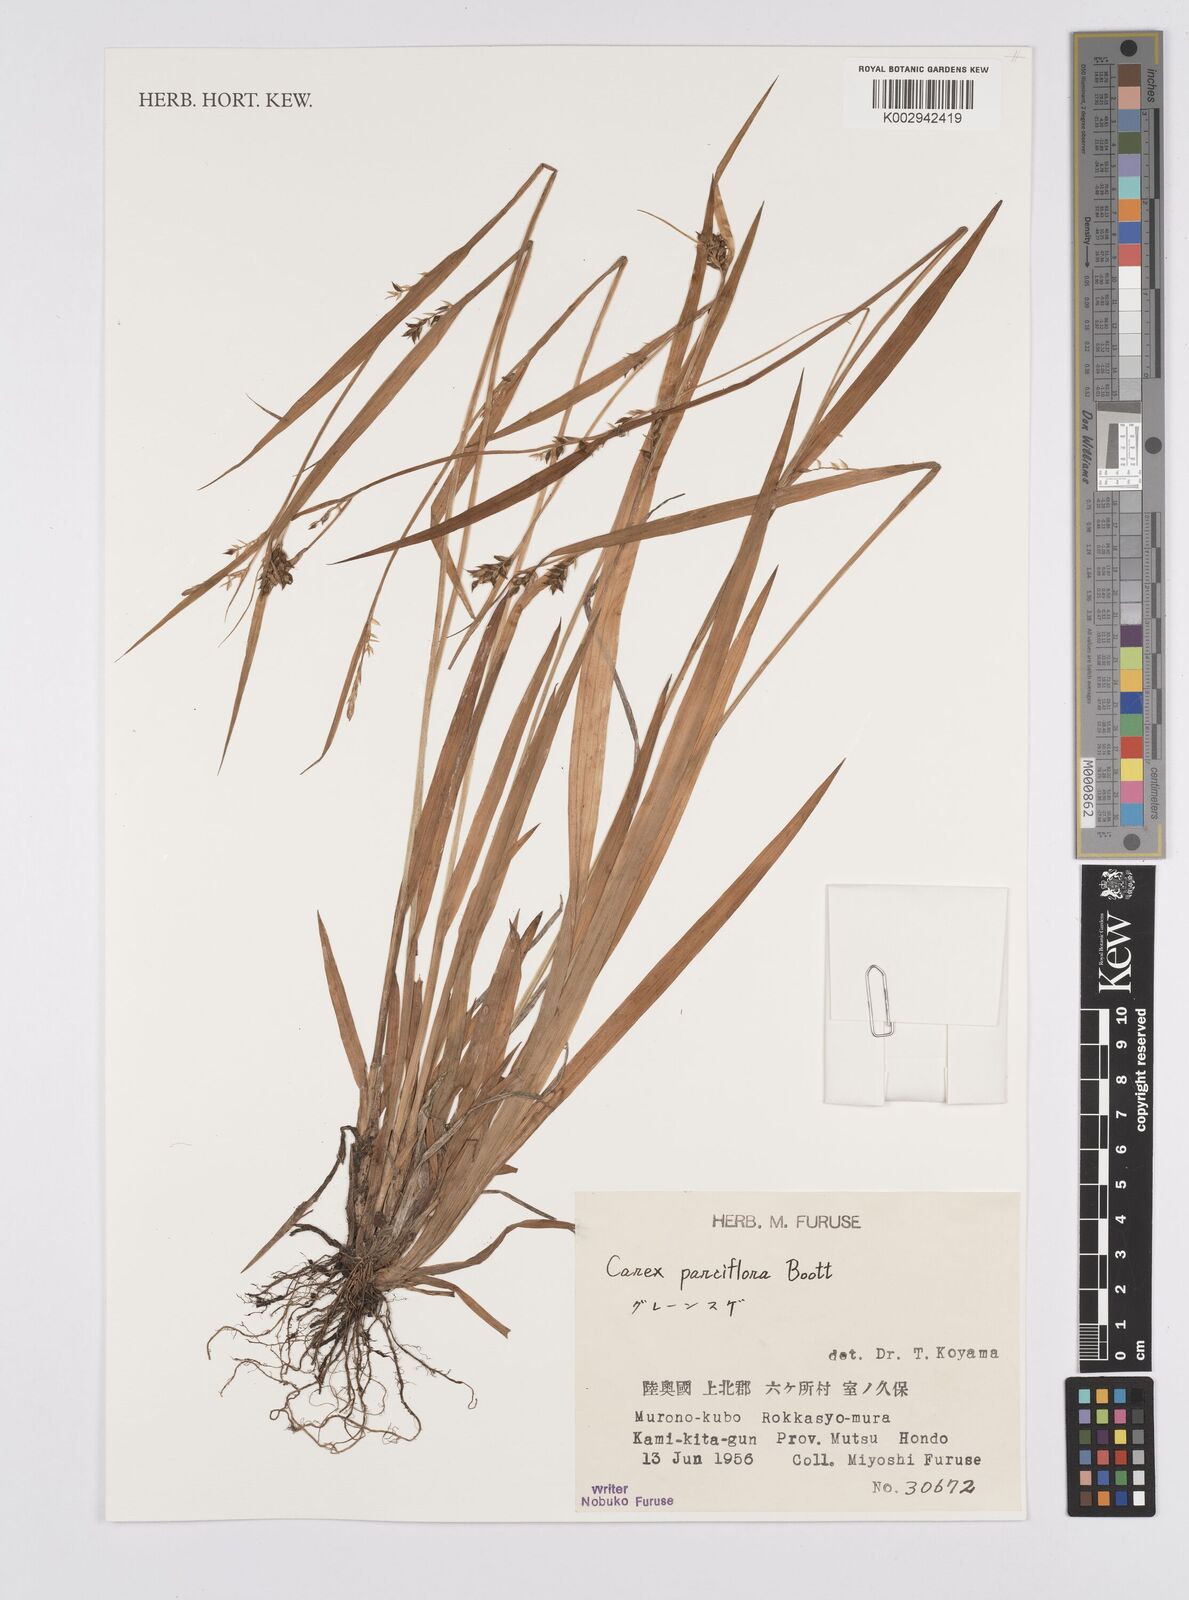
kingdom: Plantae
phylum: Tracheophyta
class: Liliopsida
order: Poales
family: Cyperaceae
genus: Carex
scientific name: Carex parciflora
